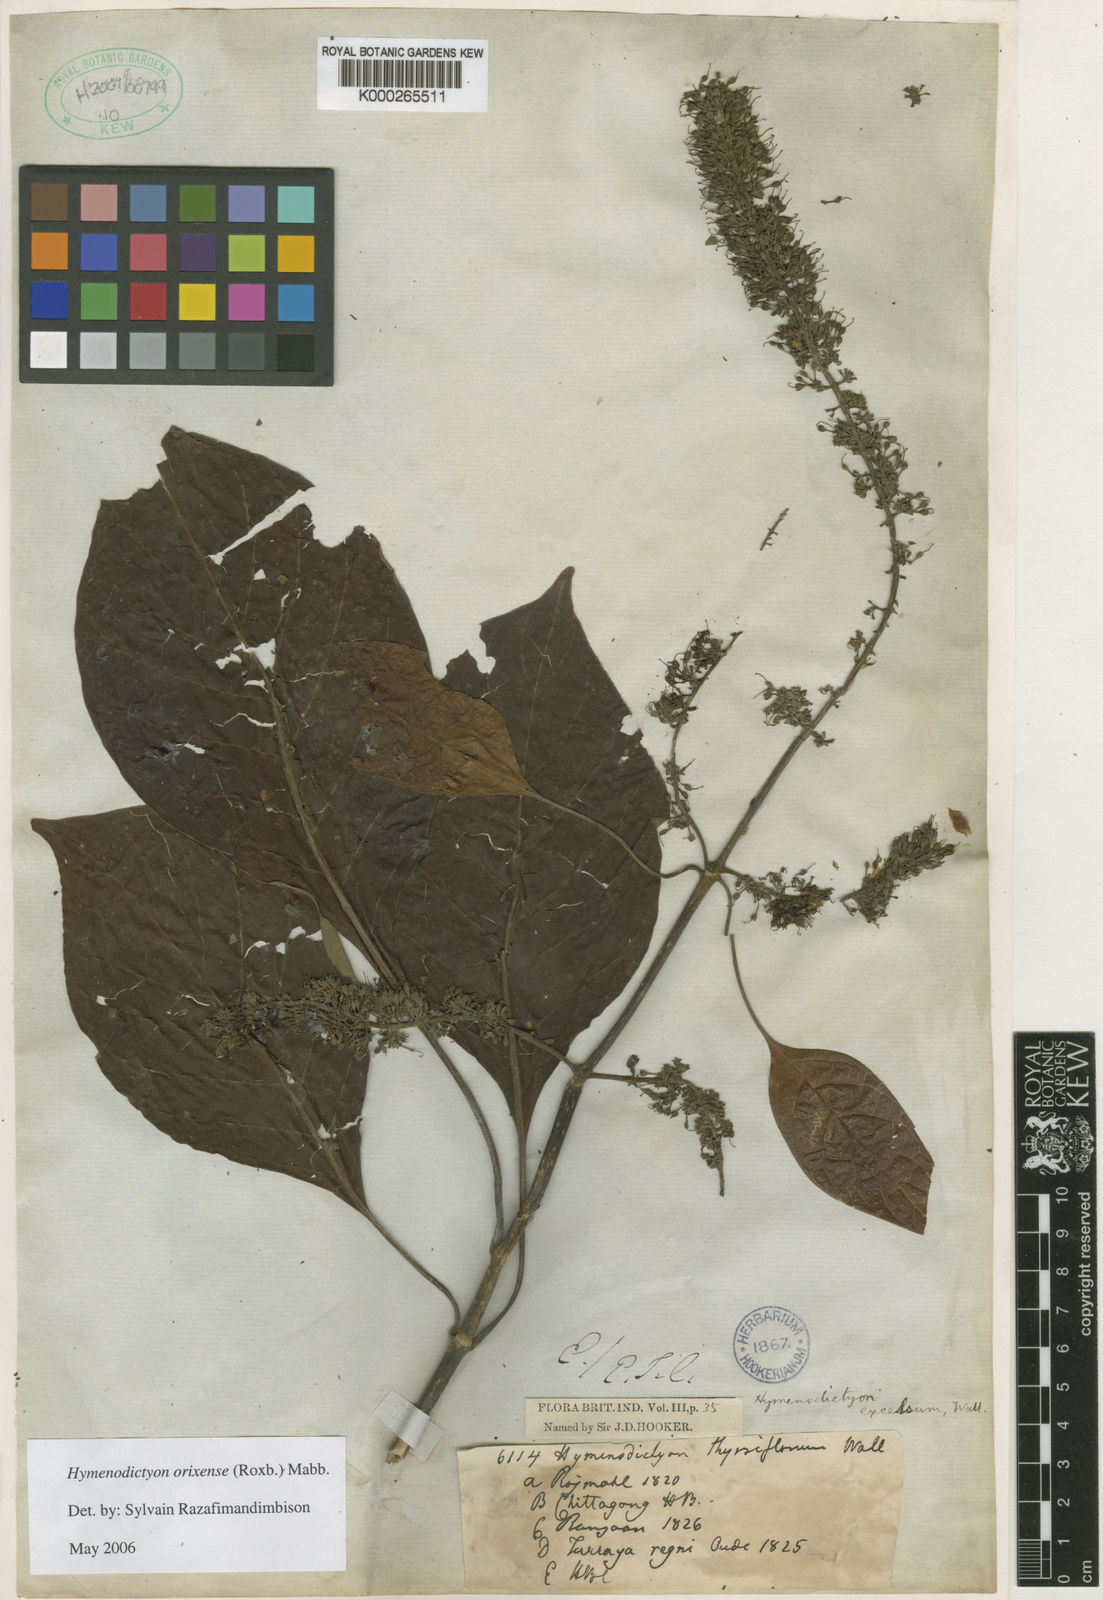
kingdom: Plantae
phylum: Tracheophyta
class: Magnoliopsida
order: Gentianales
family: Rubiaceae
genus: Hymenodictyon
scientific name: Hymenodictyon orixense
